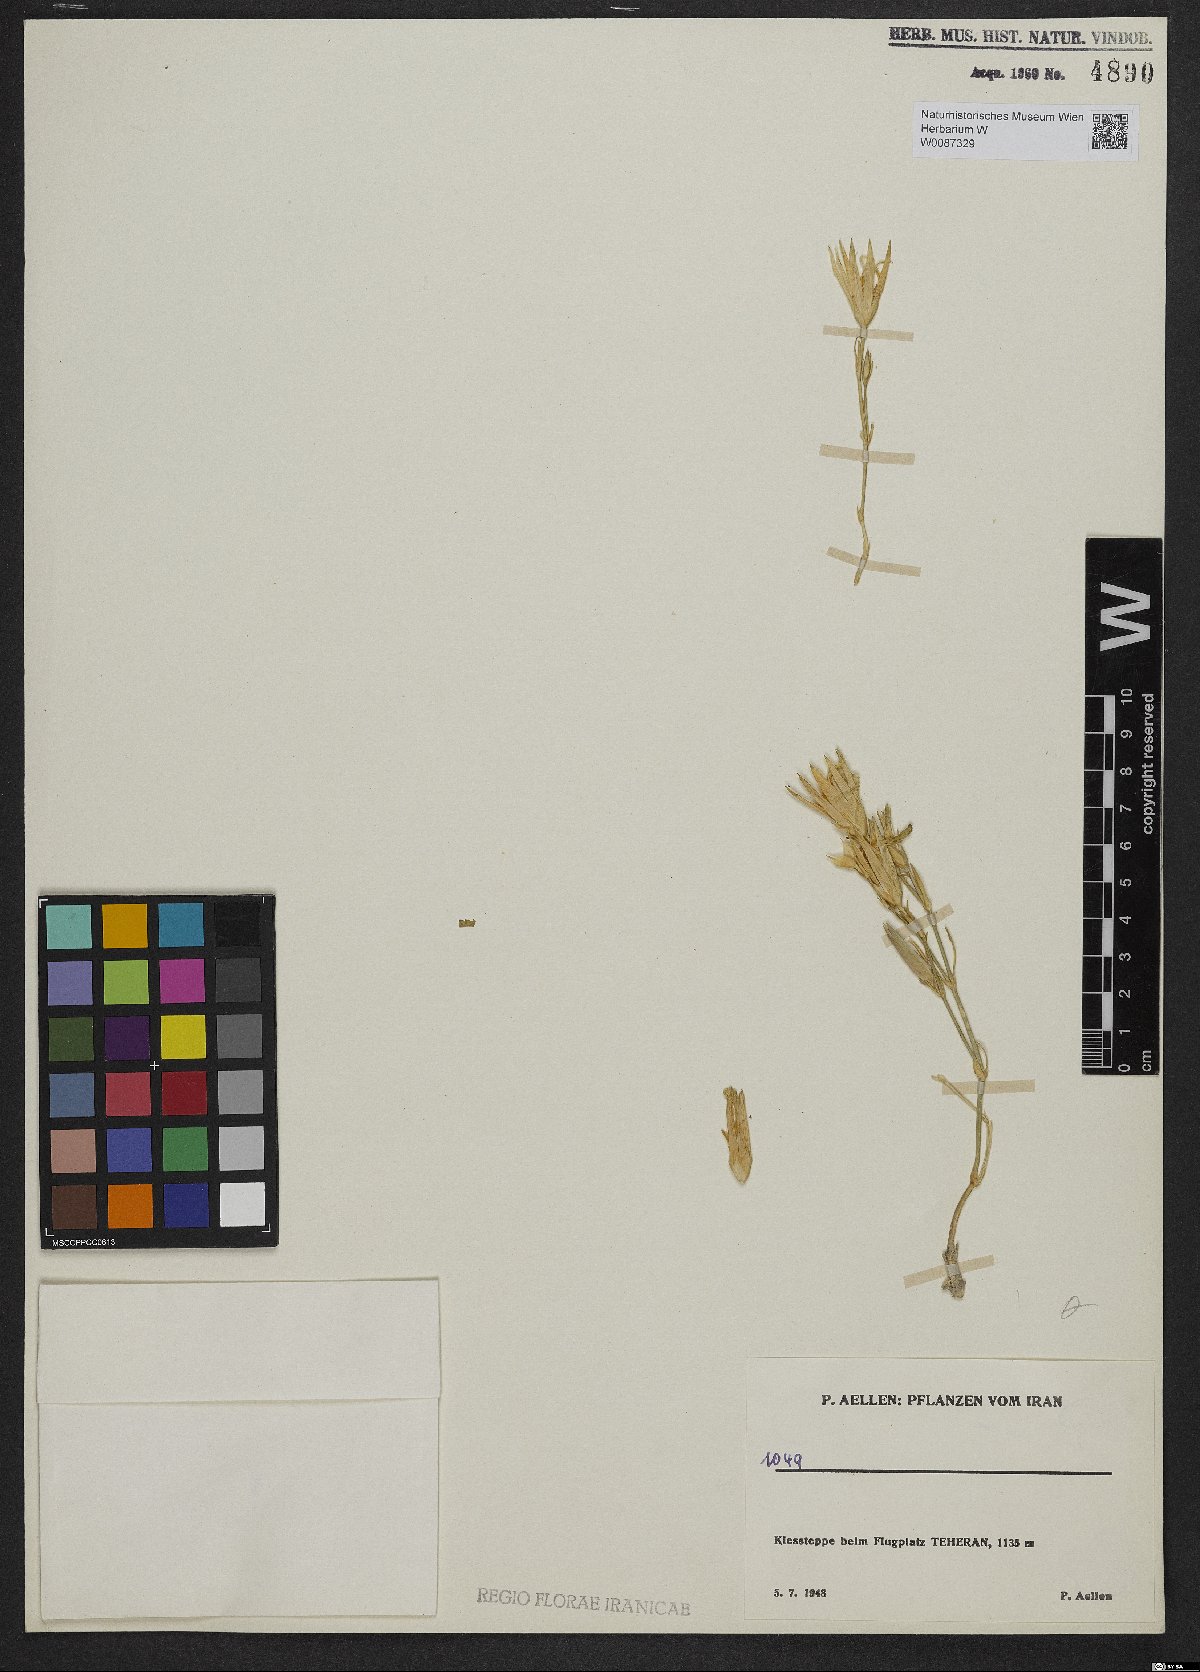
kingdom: Plantae
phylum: Tracheophyta
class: Magnoliopsida
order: Caryophyllales
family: Caryophyllaceae
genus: Dianthus
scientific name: Dianthus
